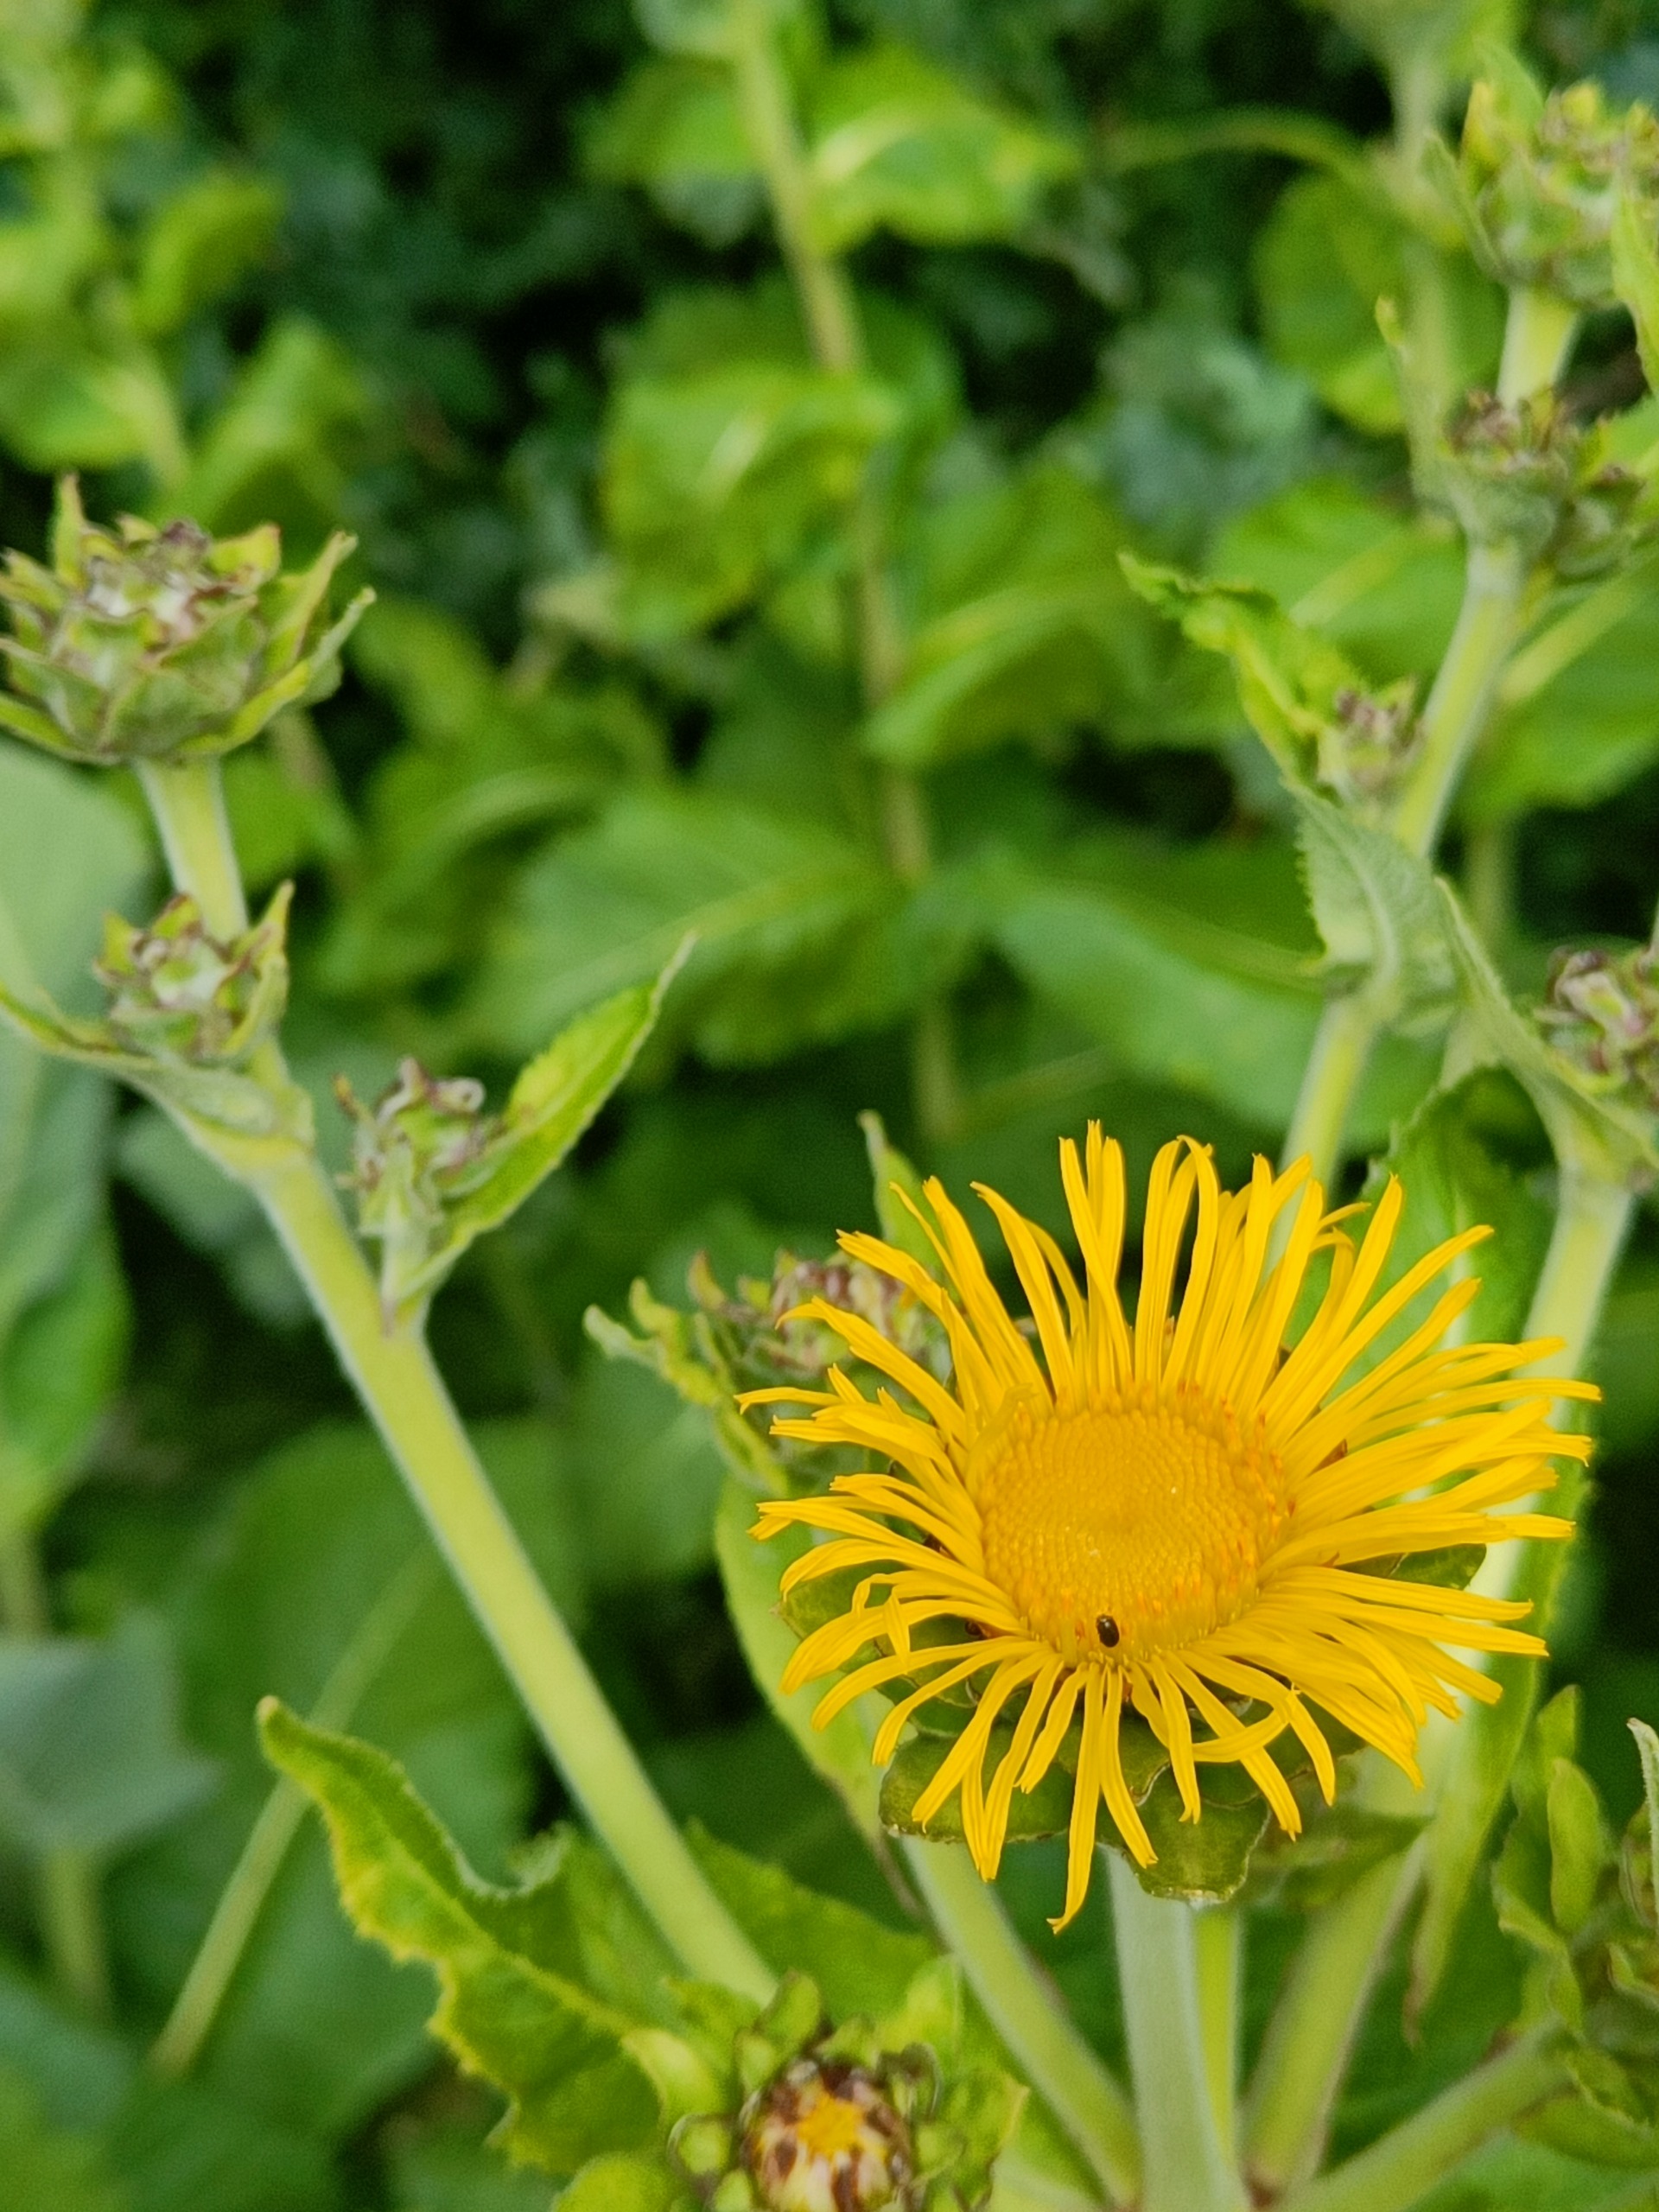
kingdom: Plantae
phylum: Tracheophyta
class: Magnoliopsida
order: Asterales
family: Asteraceae
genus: Telekia
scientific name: Telekia speciosa
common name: Tusindstråle
